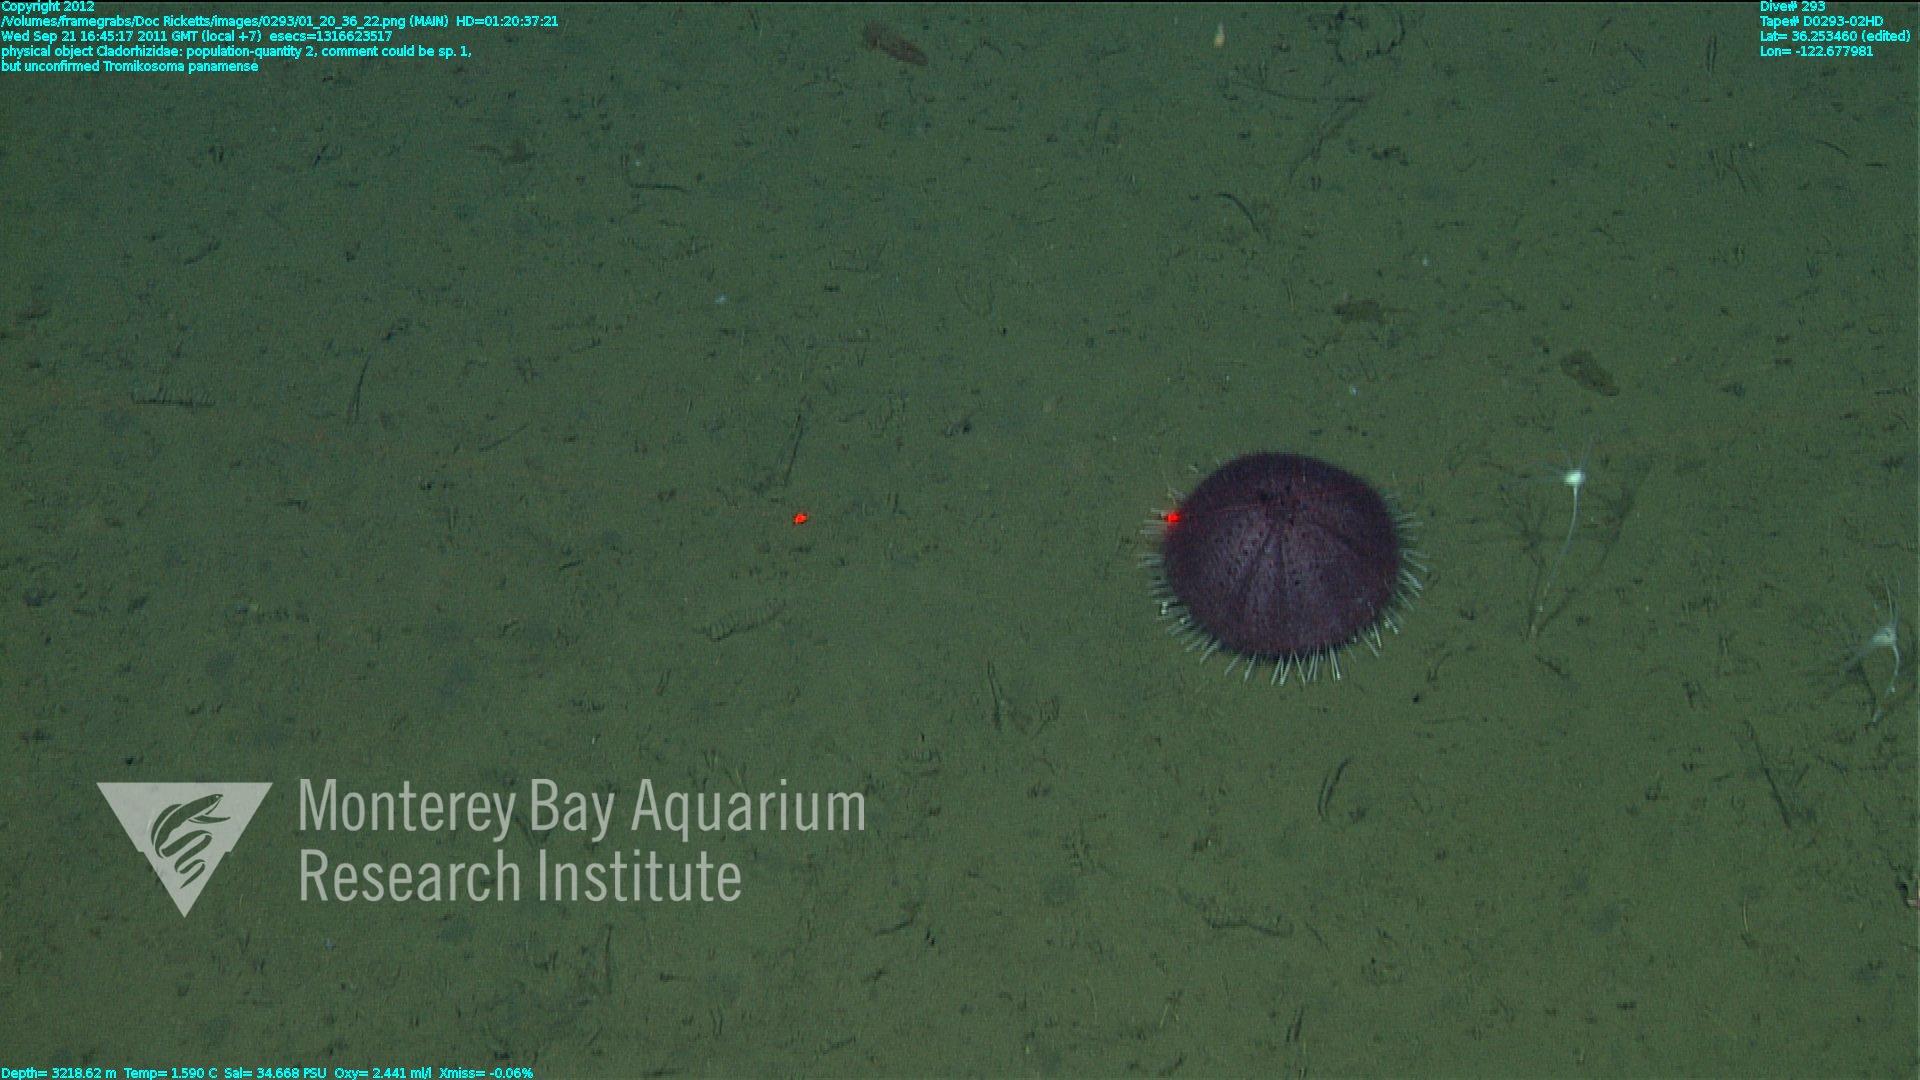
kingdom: Animalia
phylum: Porifera
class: Demospongiae
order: Poecilosclerida
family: Cladorhizidae
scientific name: Cladorhizidae
